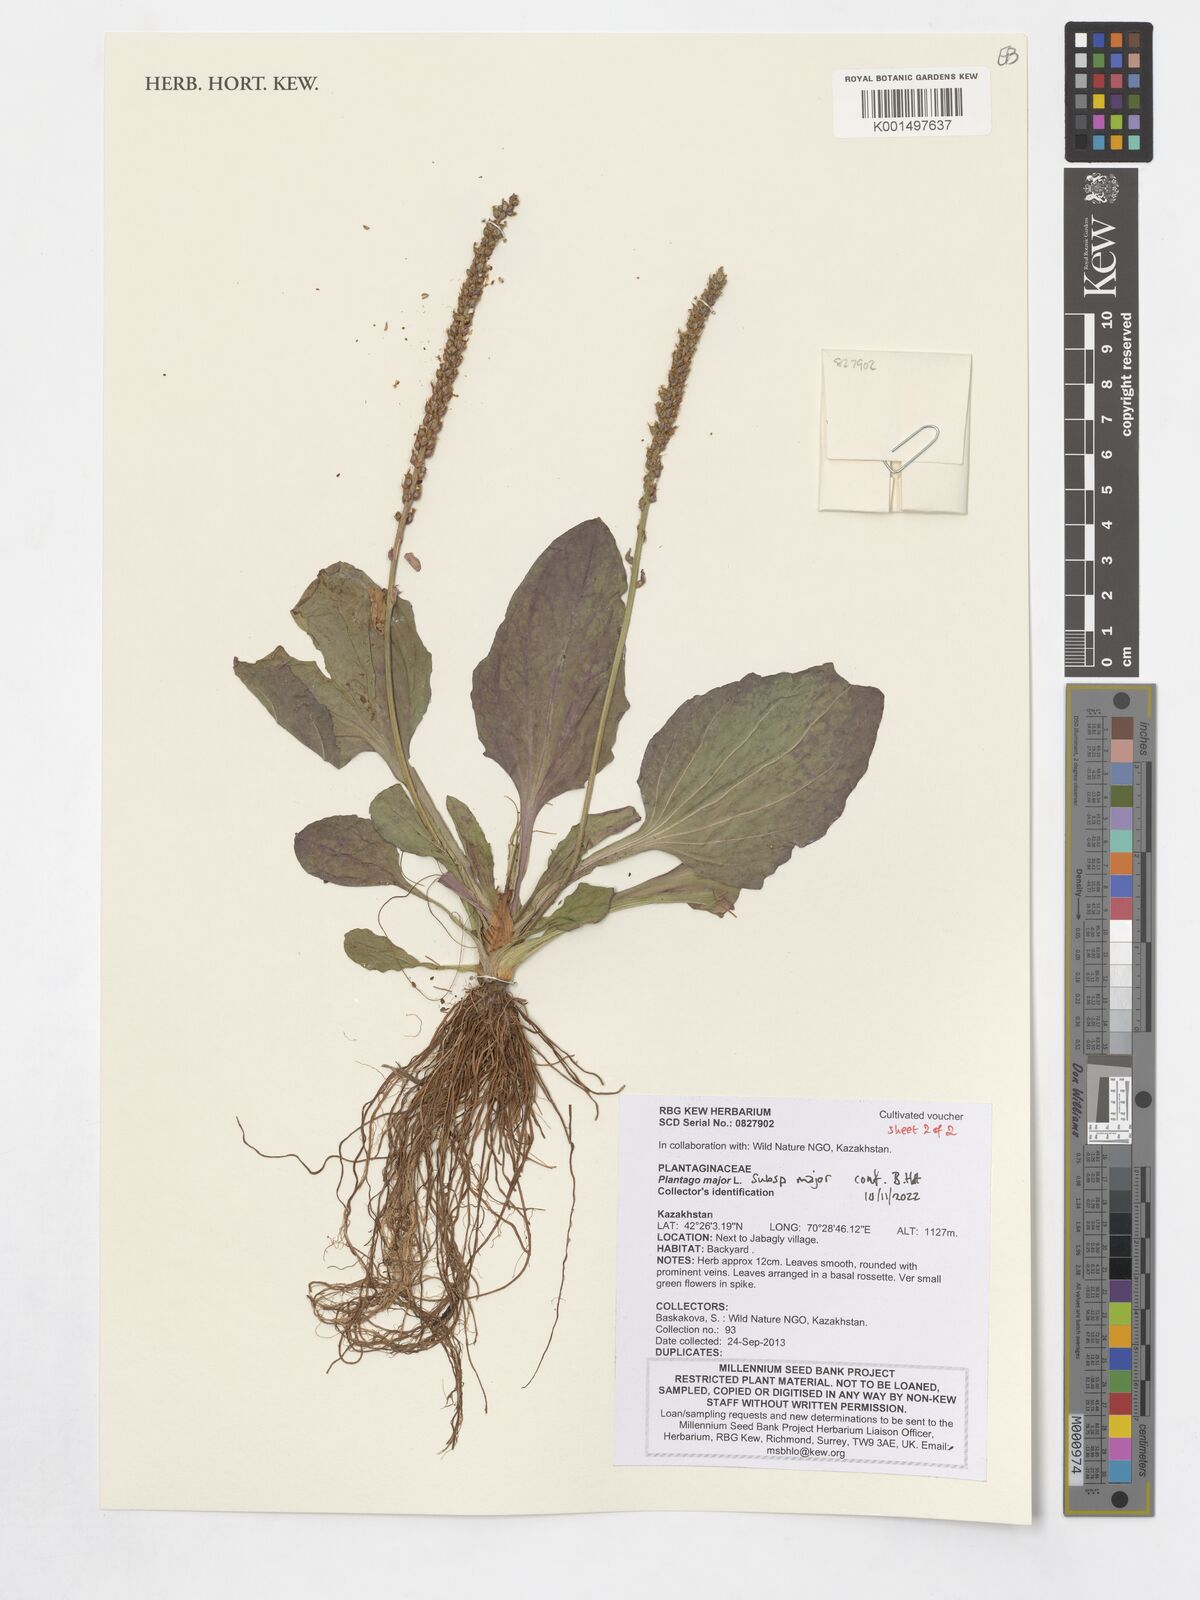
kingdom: Plantae
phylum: Tracheophyta
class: Magnoliopsida
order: Lamiales
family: Plantaginaceae
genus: Plantago
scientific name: Plantago major
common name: Common plantain
